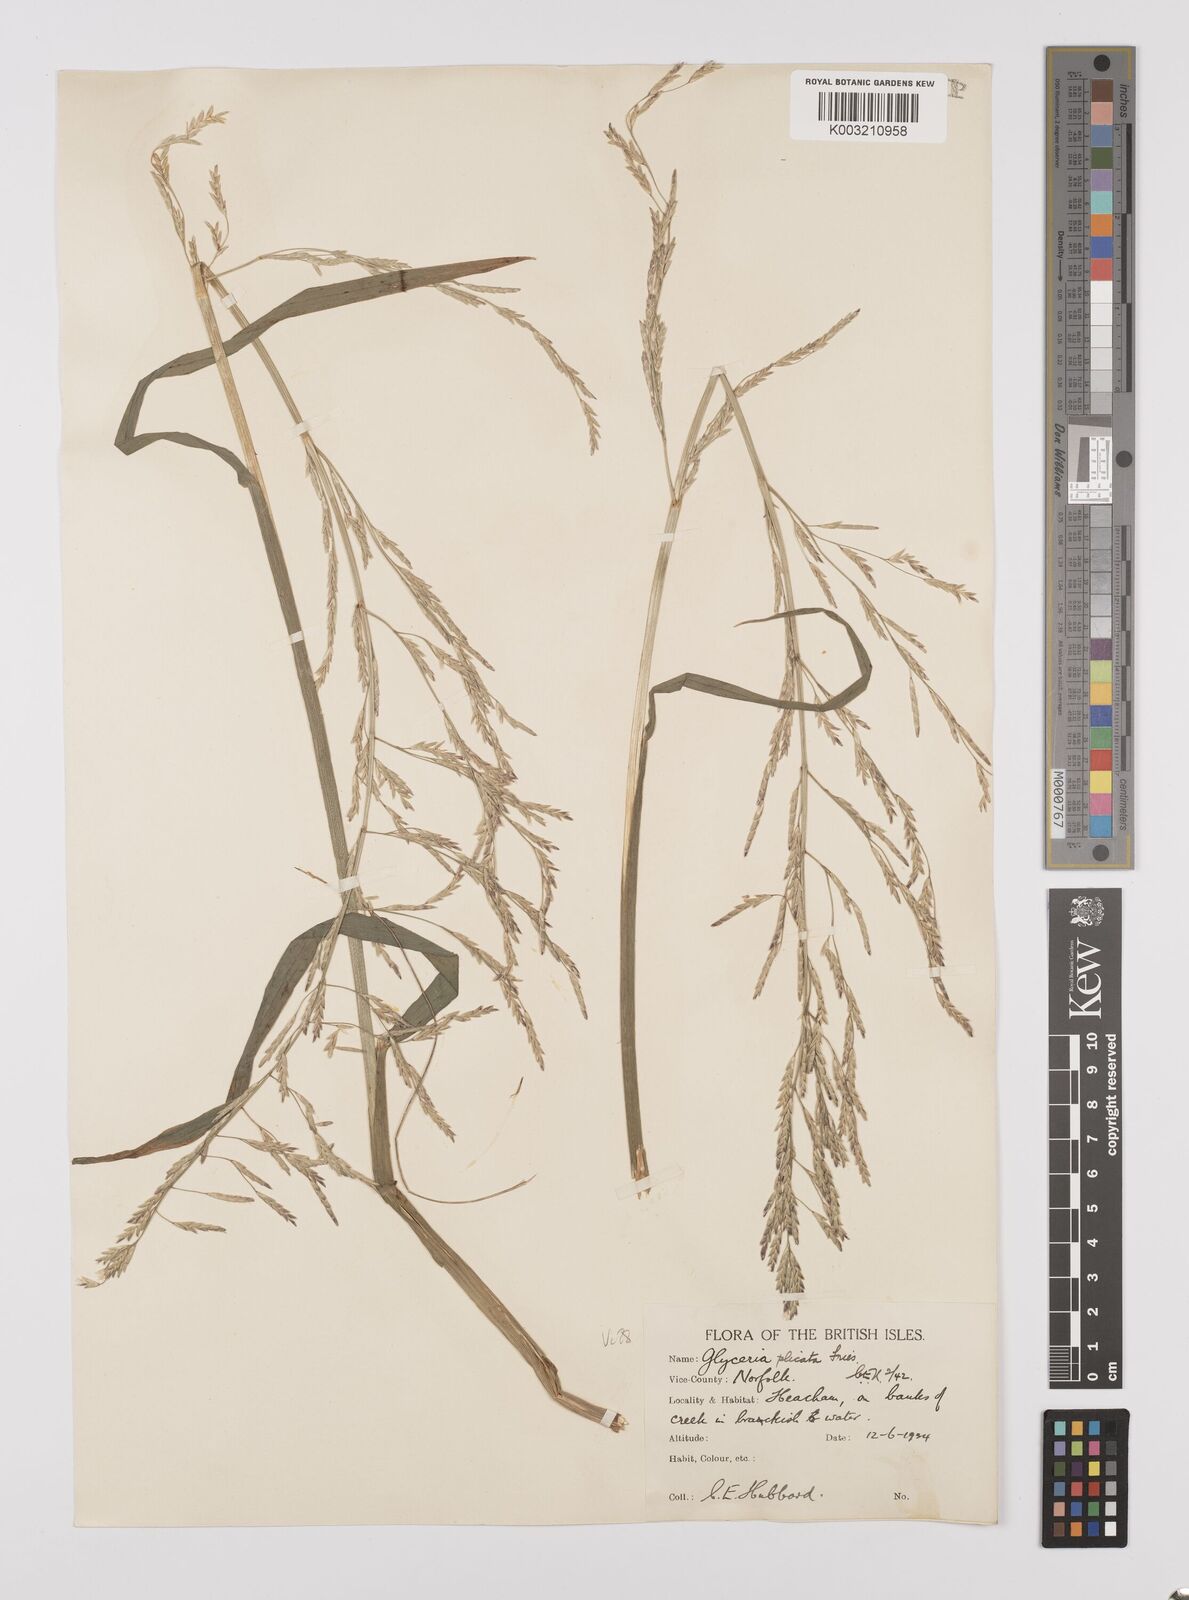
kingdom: Plantae
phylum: Tracheophyta
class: Liliopsida
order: Poales
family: Poaceae
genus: Glyceria
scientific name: Glyceria notata
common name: Plicate sweet-grass
